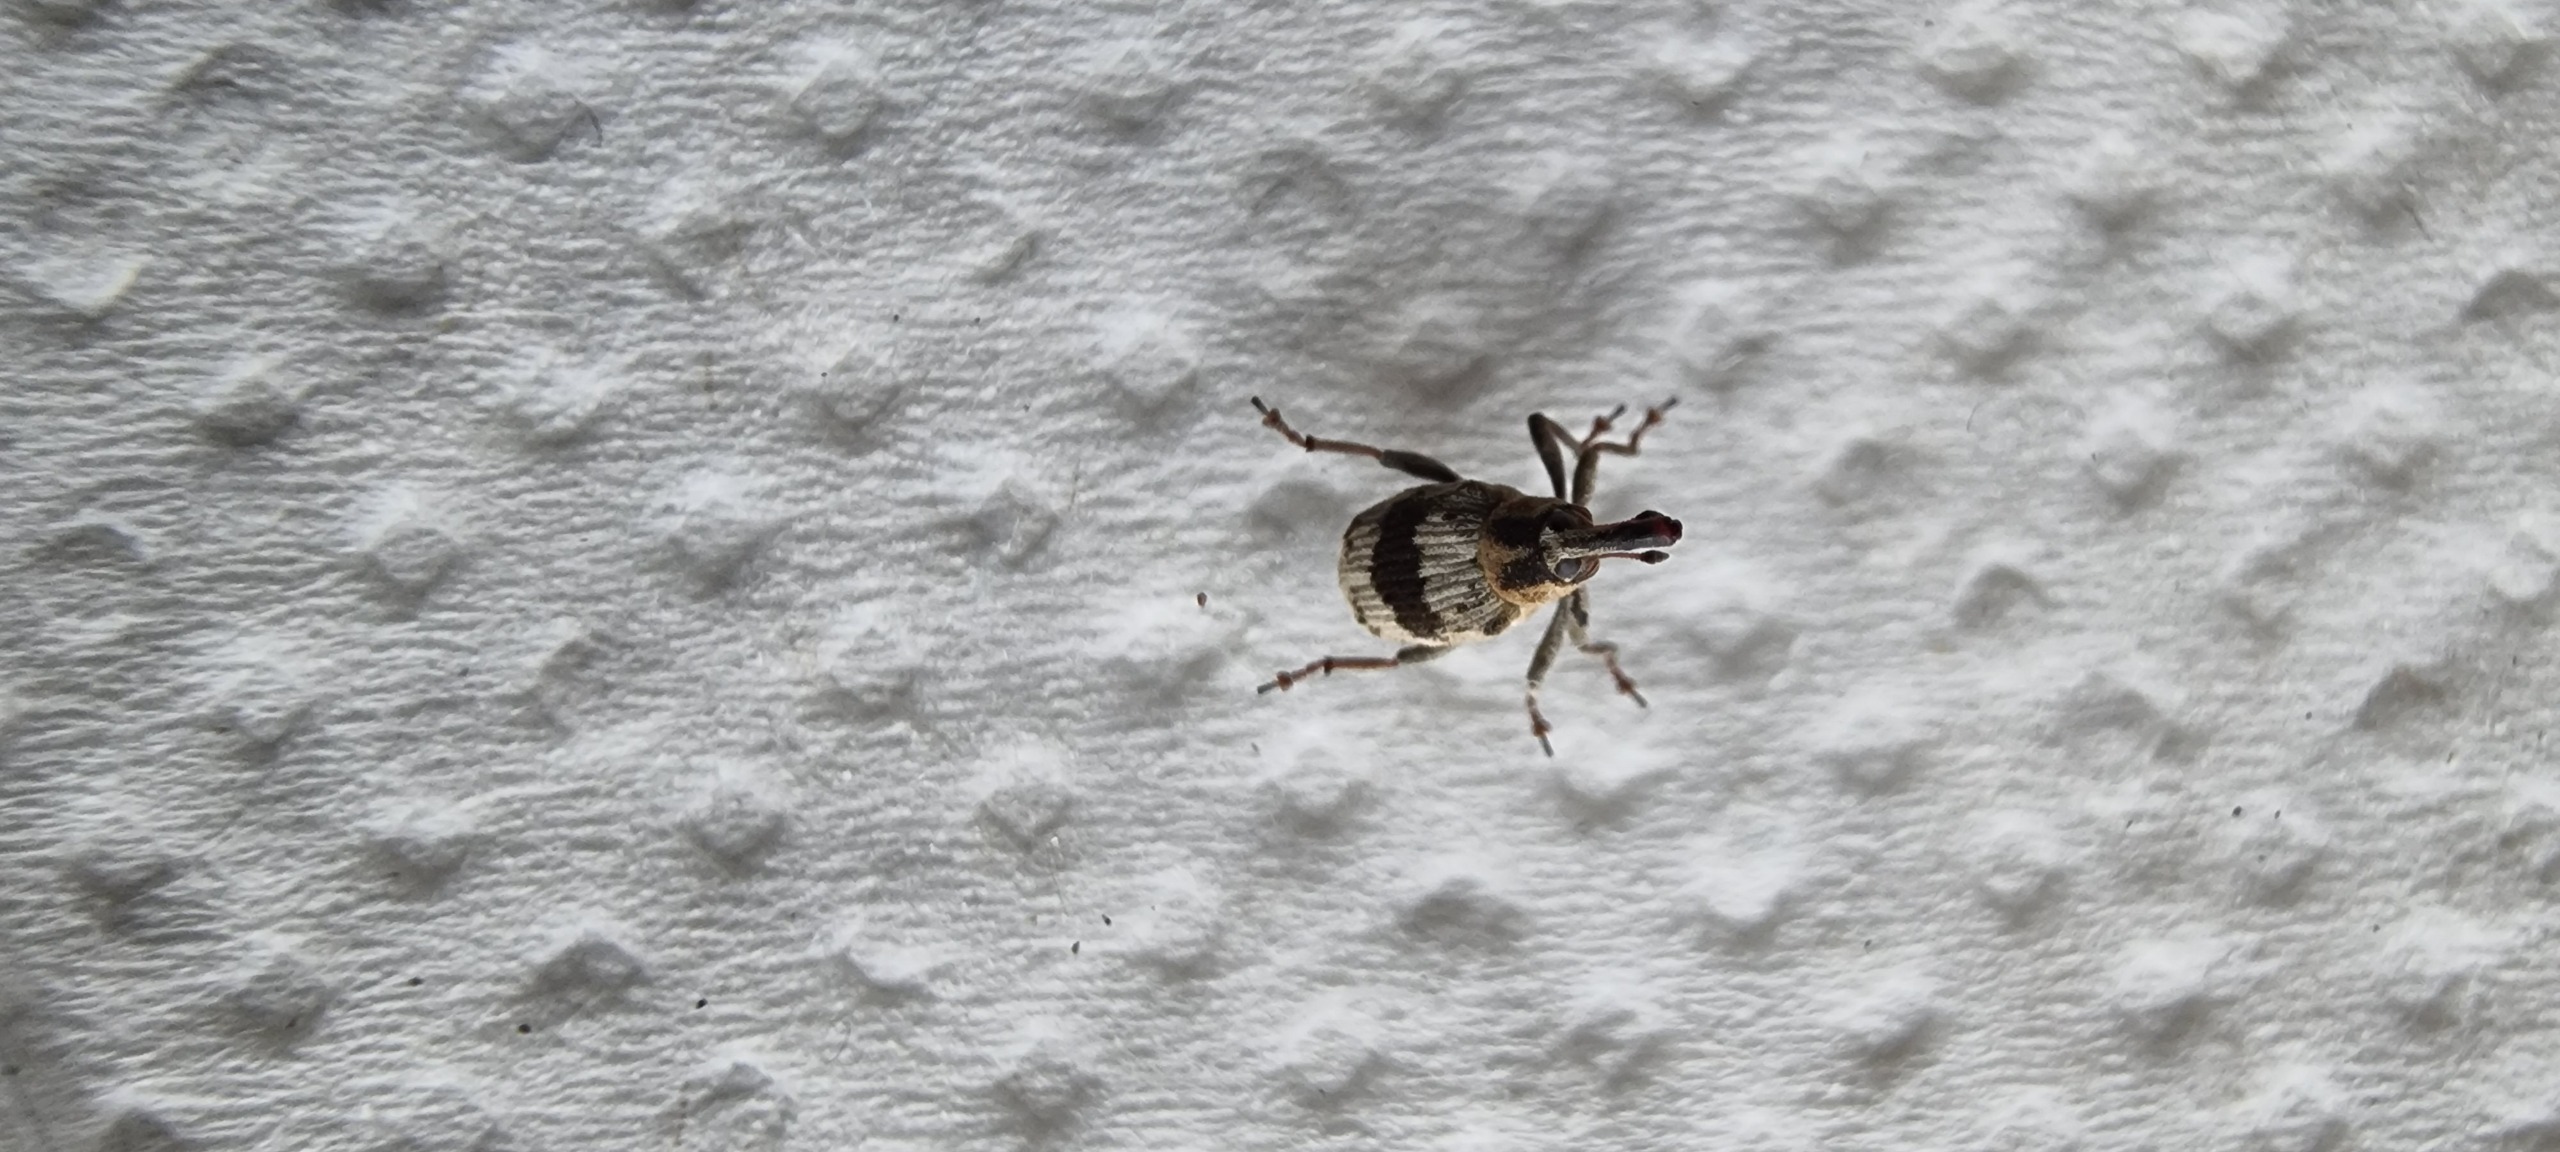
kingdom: Animalia
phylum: Arthropoda
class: Insecta
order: Coleoptera
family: Curculionidae
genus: Tapinotus
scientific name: Tapinotus sellatus
